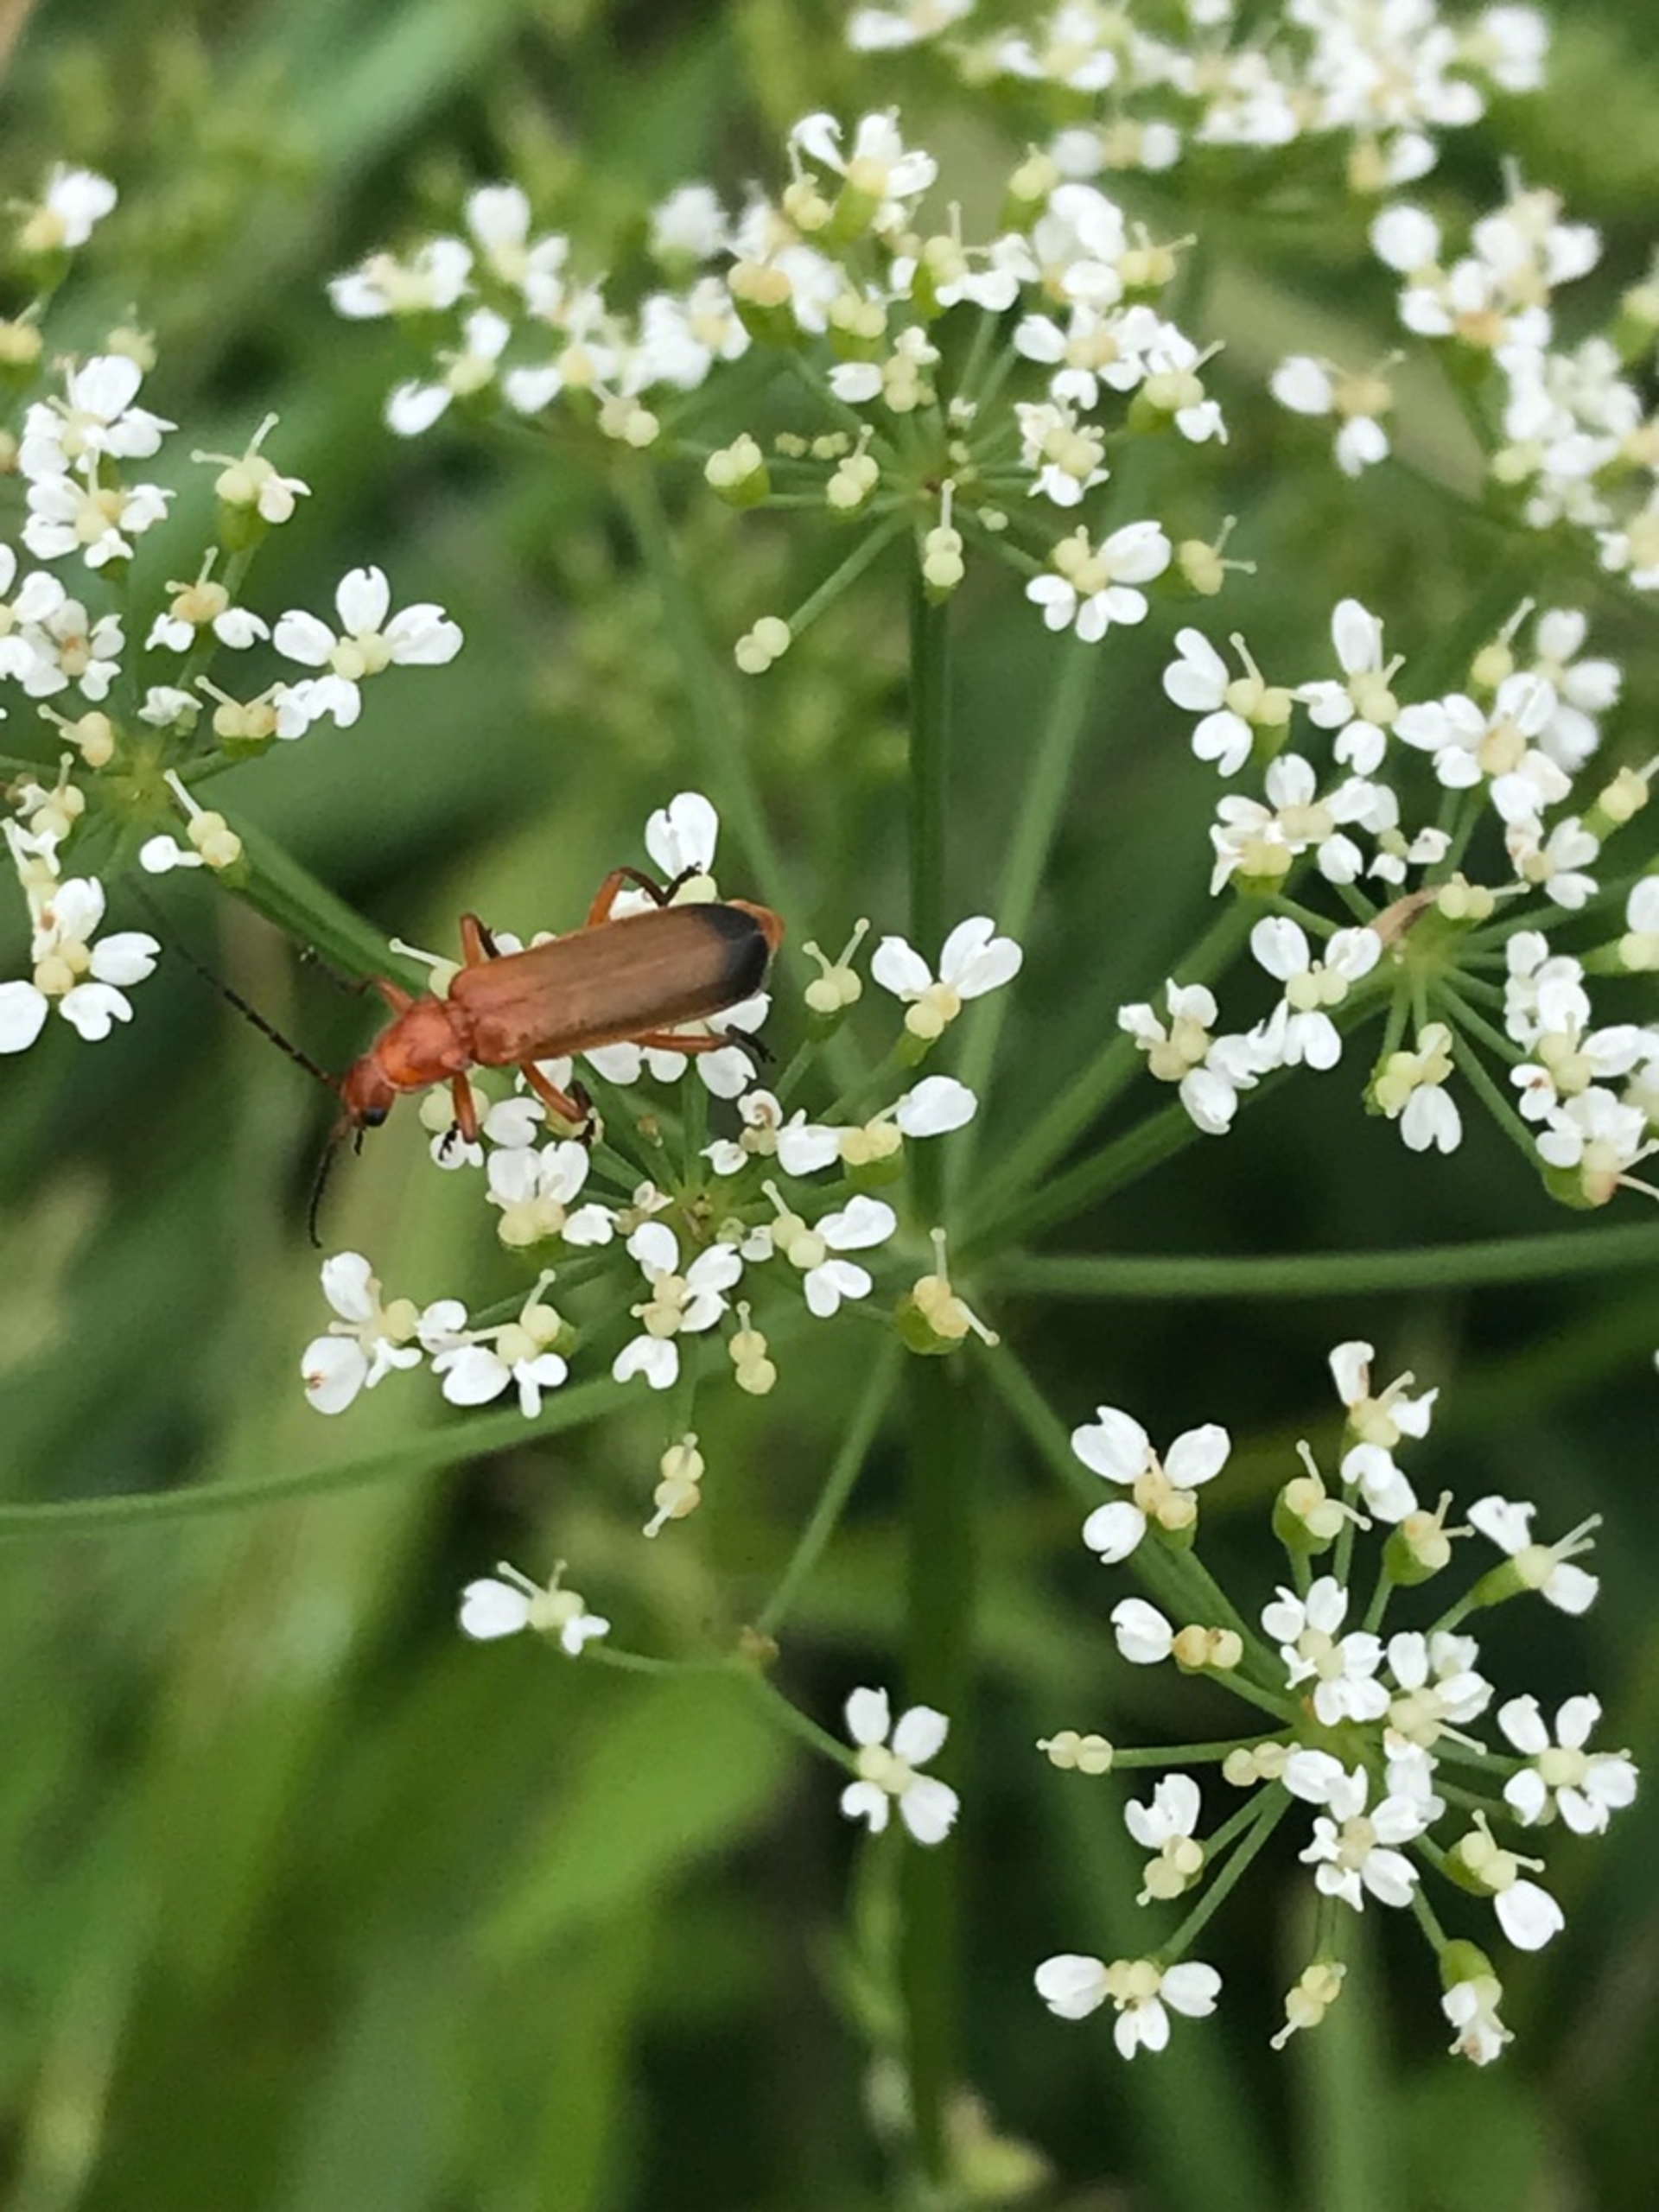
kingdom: Animalia
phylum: Arthropoda
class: Insecta
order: Coleoptera
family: Cantharidae
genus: Rhagonycha
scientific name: Rhagonycha fulva
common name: Præstebille
